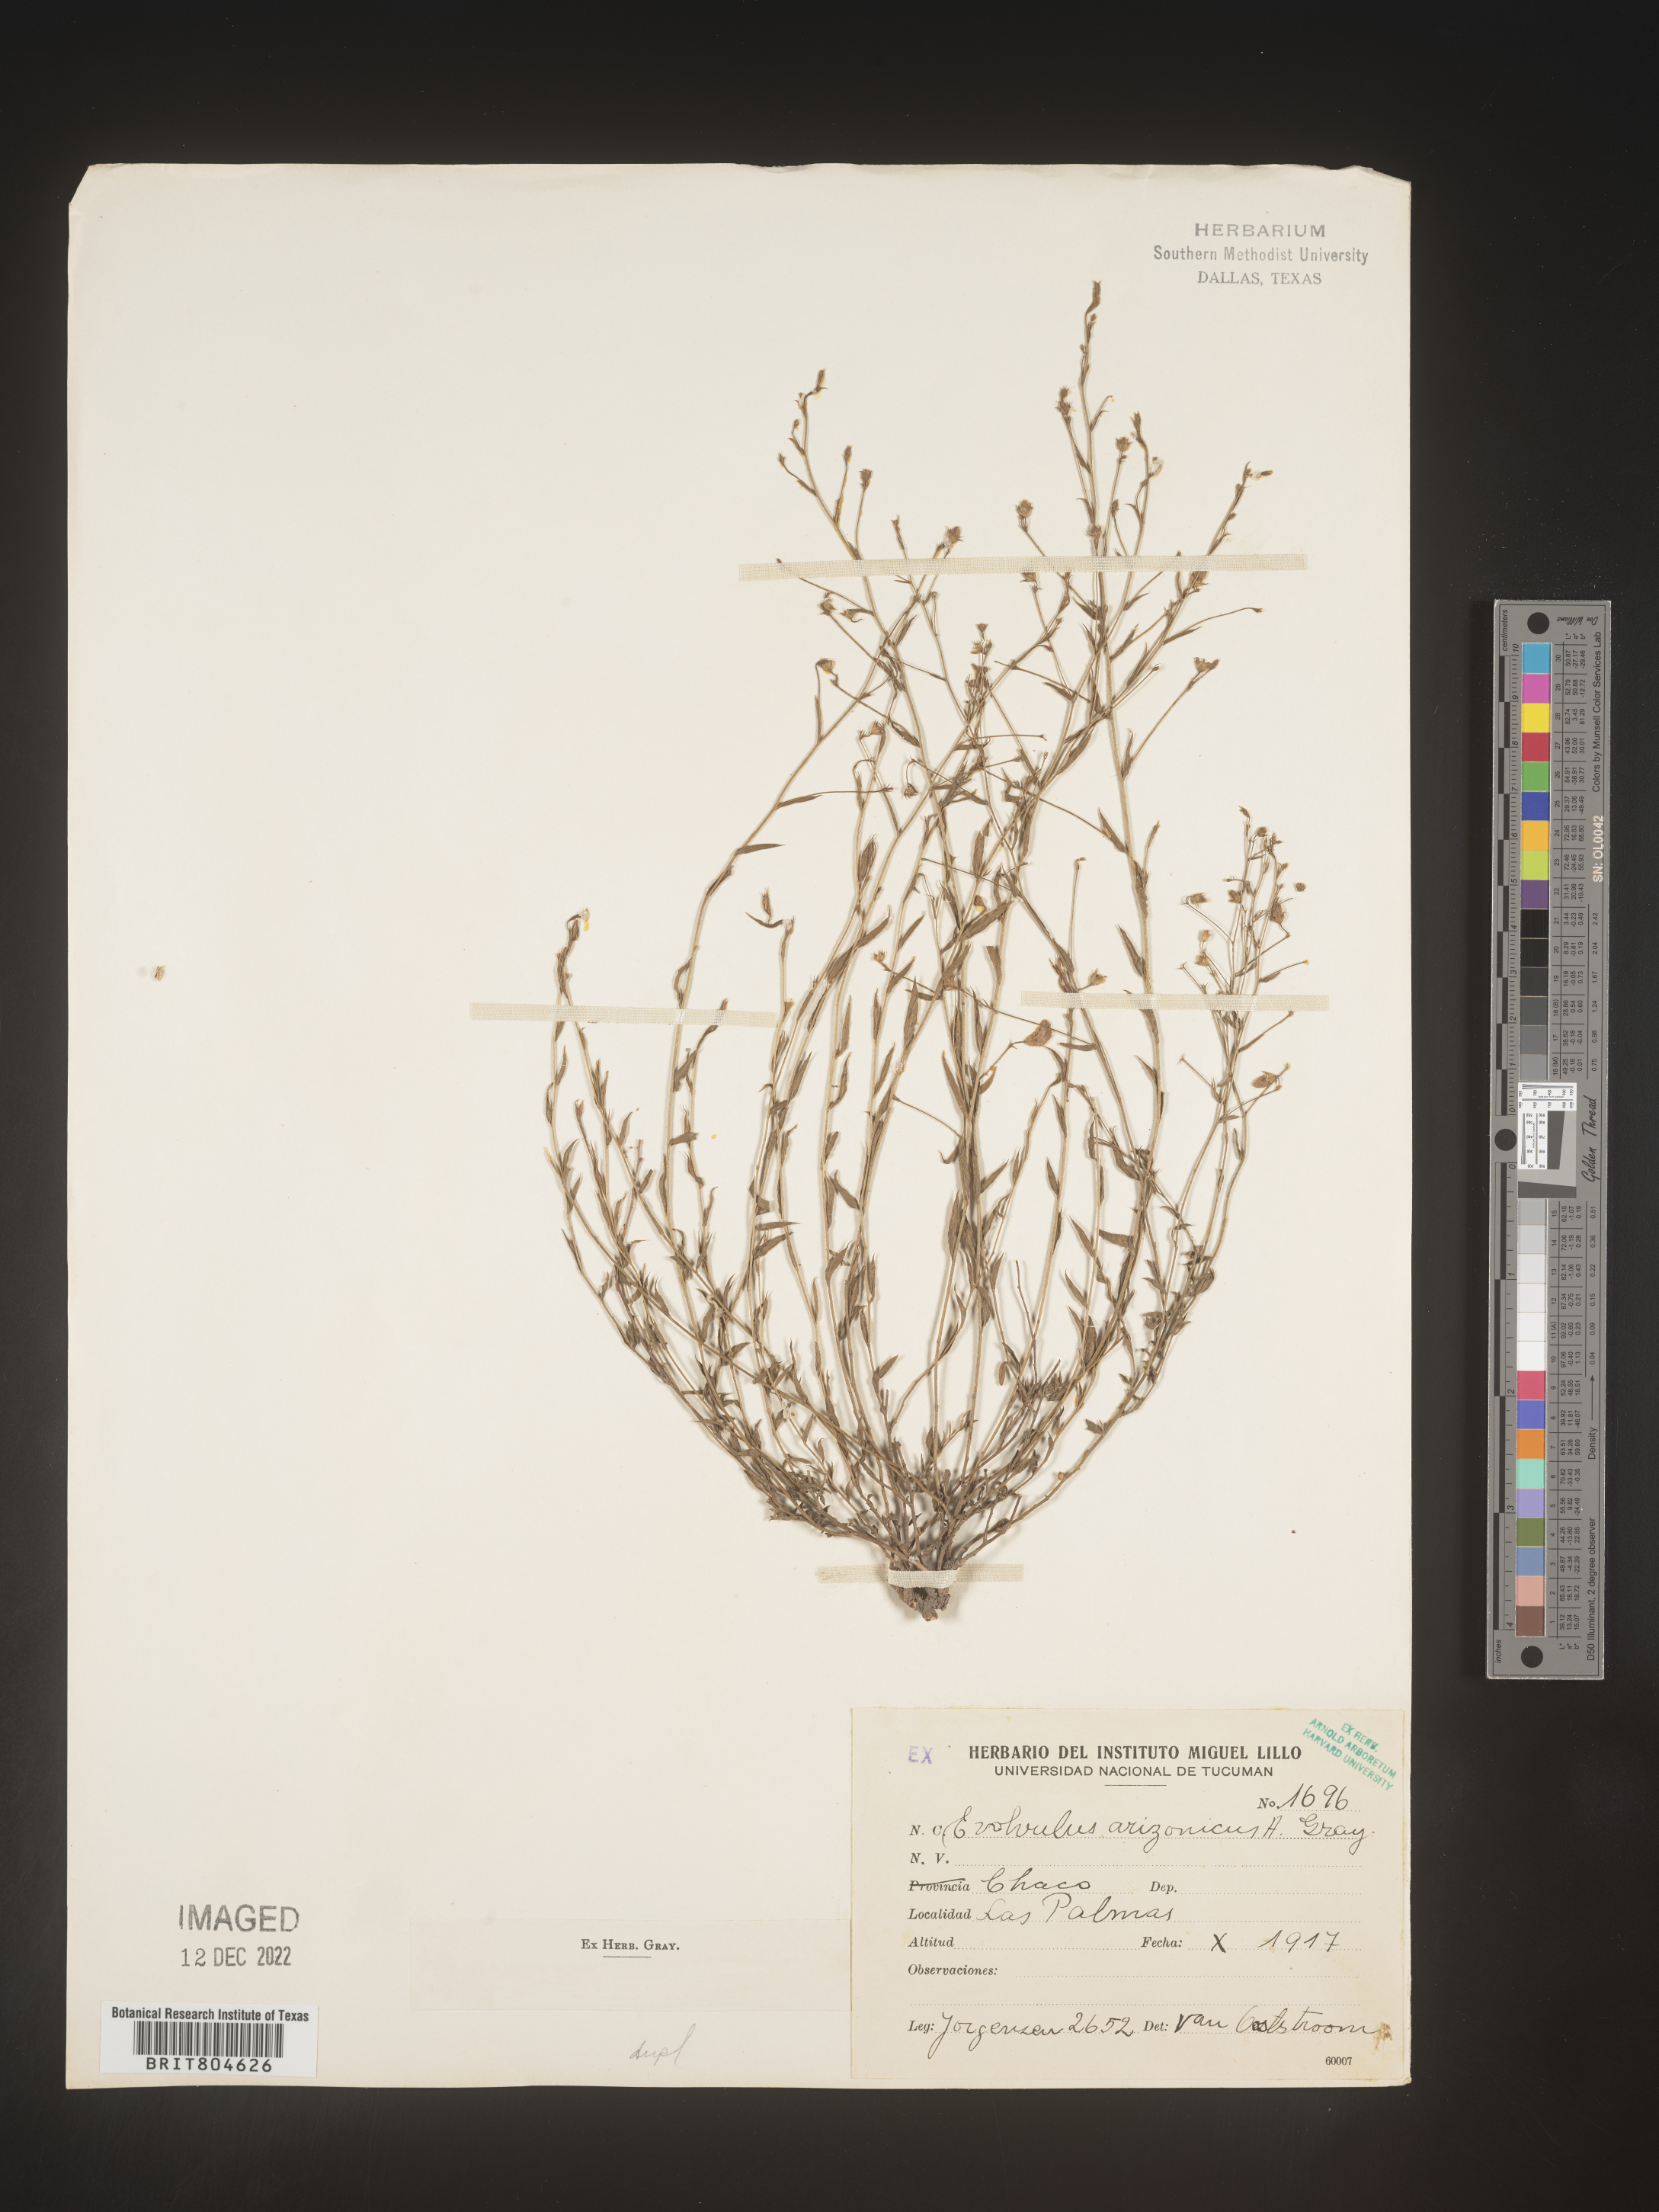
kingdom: Plantae
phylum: Tracheophyta
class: Magnoliopsida
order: Solanales
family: Convolvulaceae
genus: Evolvulus
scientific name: Evolvulus
